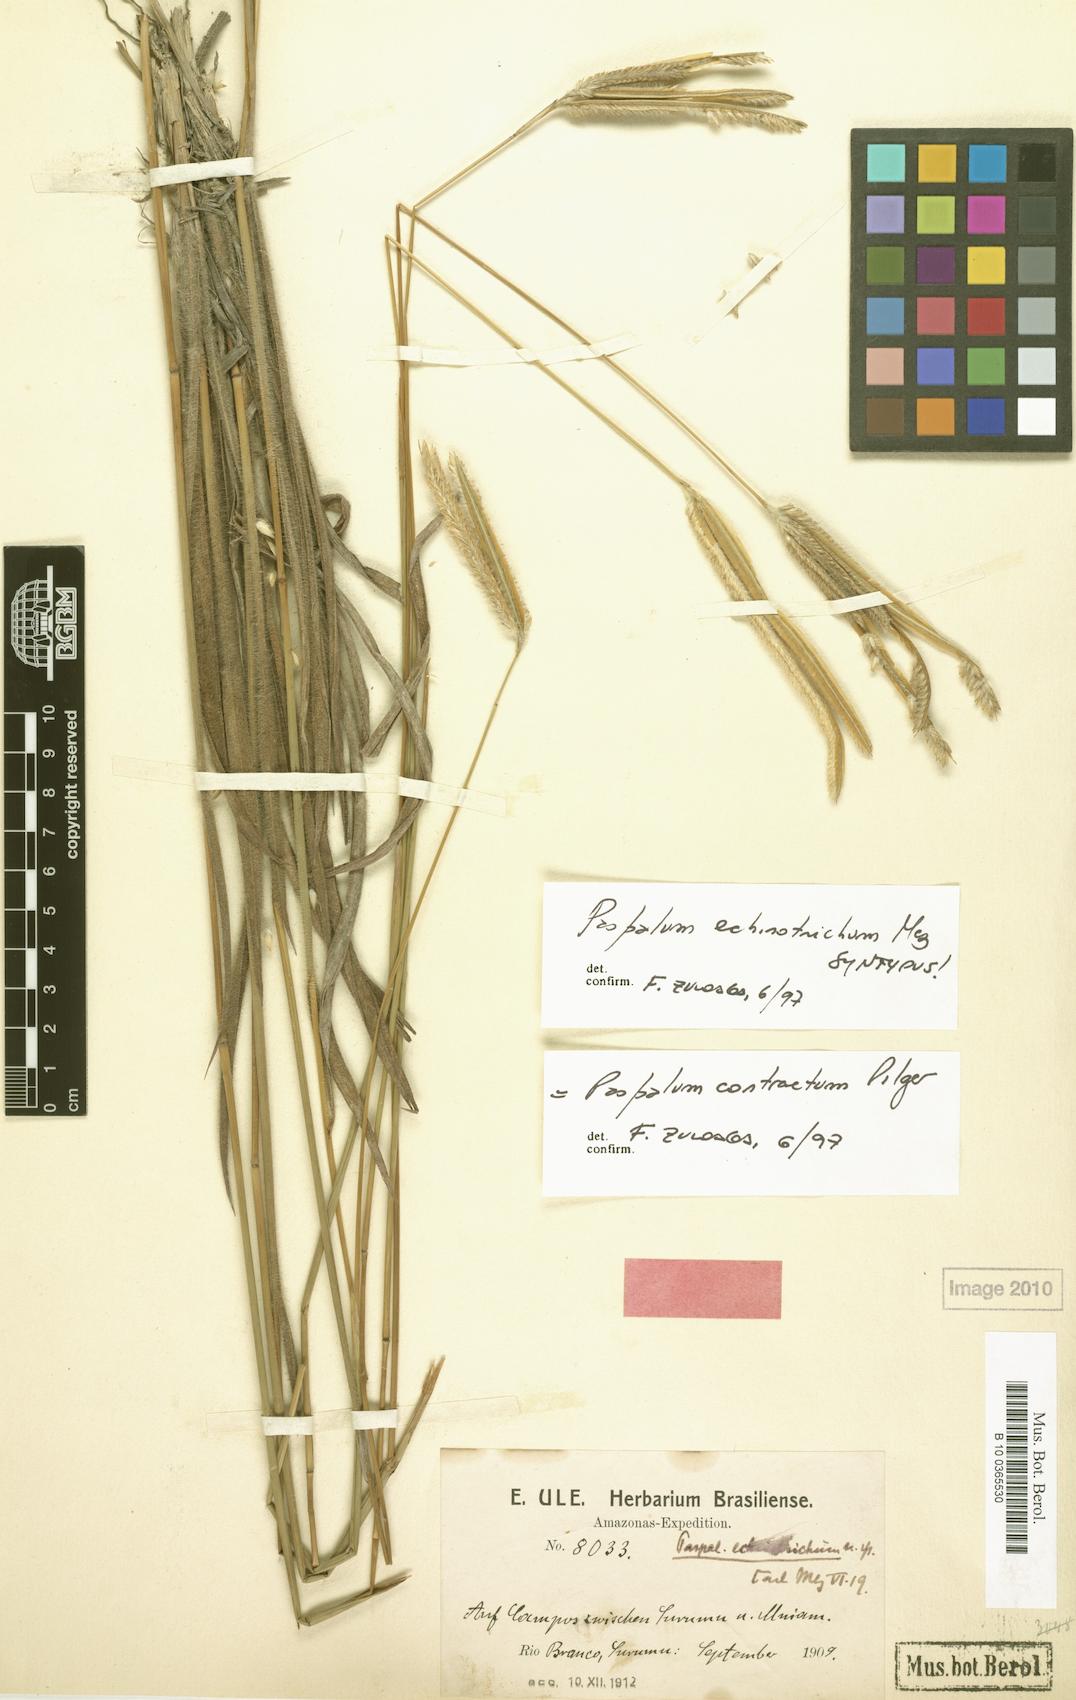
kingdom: Plantae
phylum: Tracheophyta
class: Liliopsida
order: Poales
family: Poaceae
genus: Paspalum
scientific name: Paspalum lanciflorum
